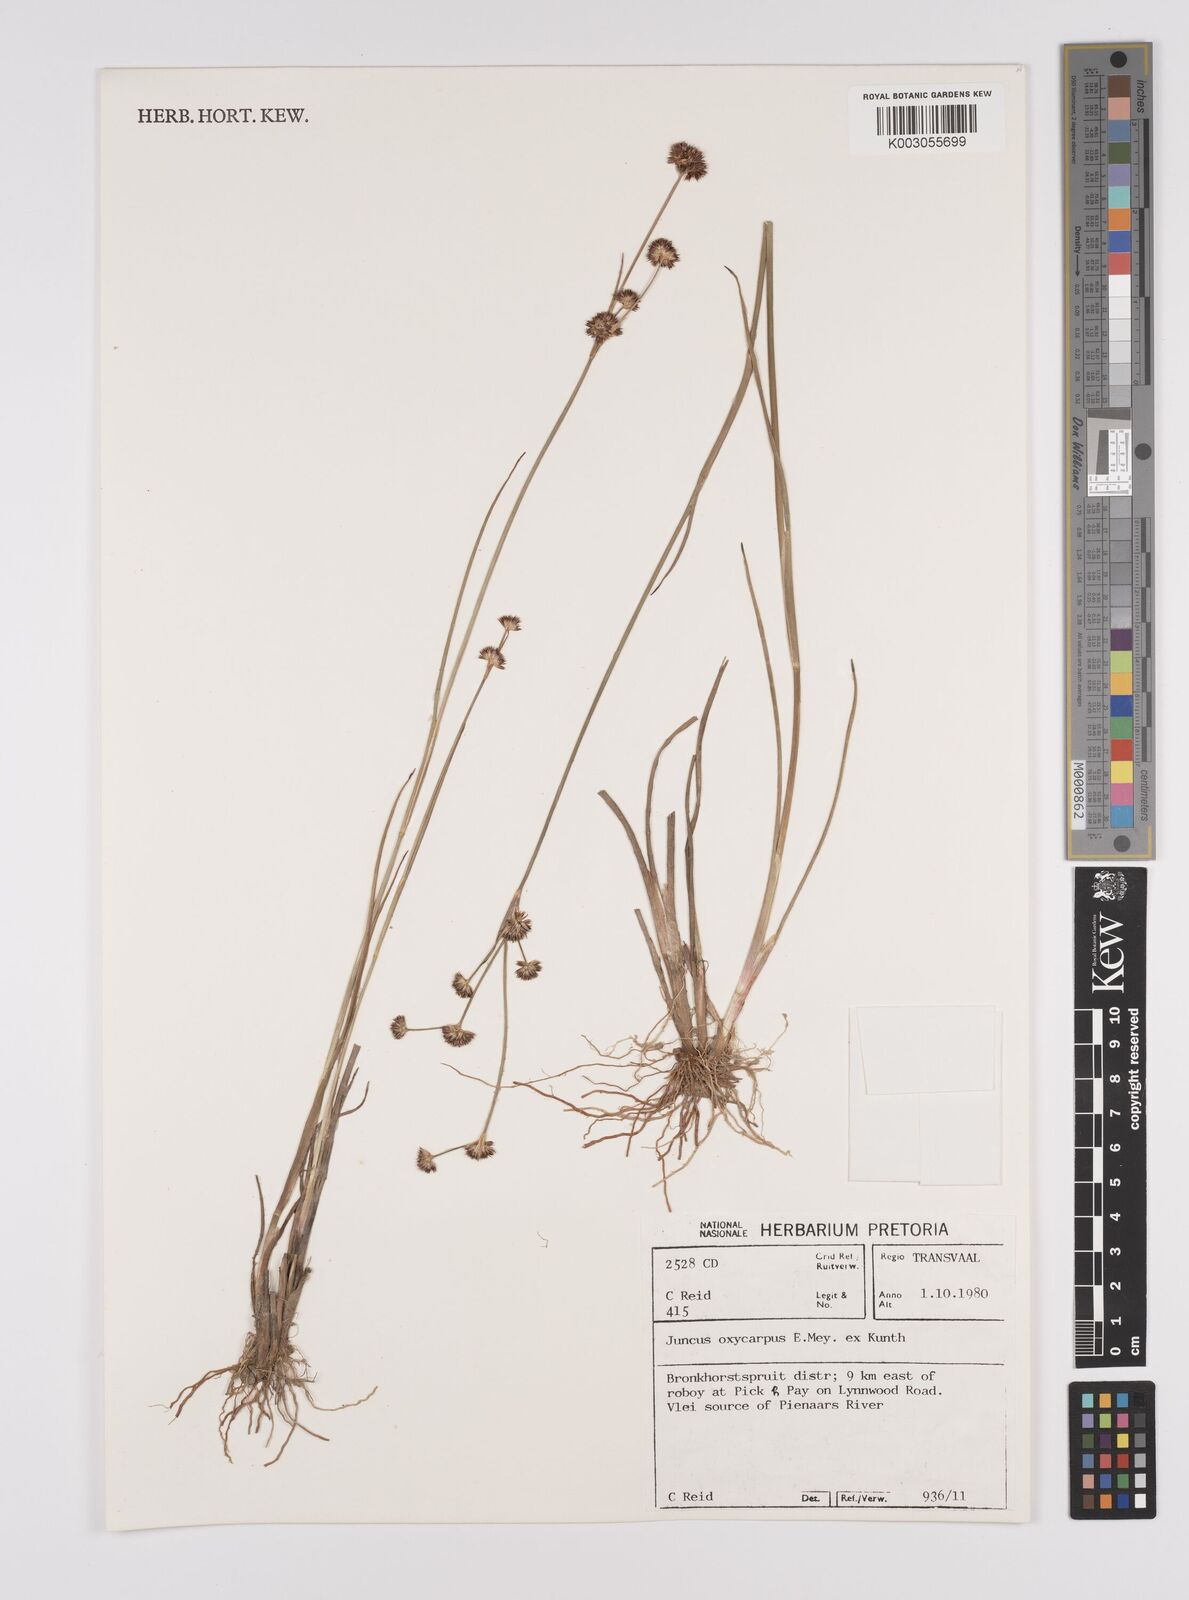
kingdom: Plantae
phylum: Tracheophyta
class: Liliopsida
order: Poales
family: Juncaceae
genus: Juncus
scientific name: Juncus oxycarpus
